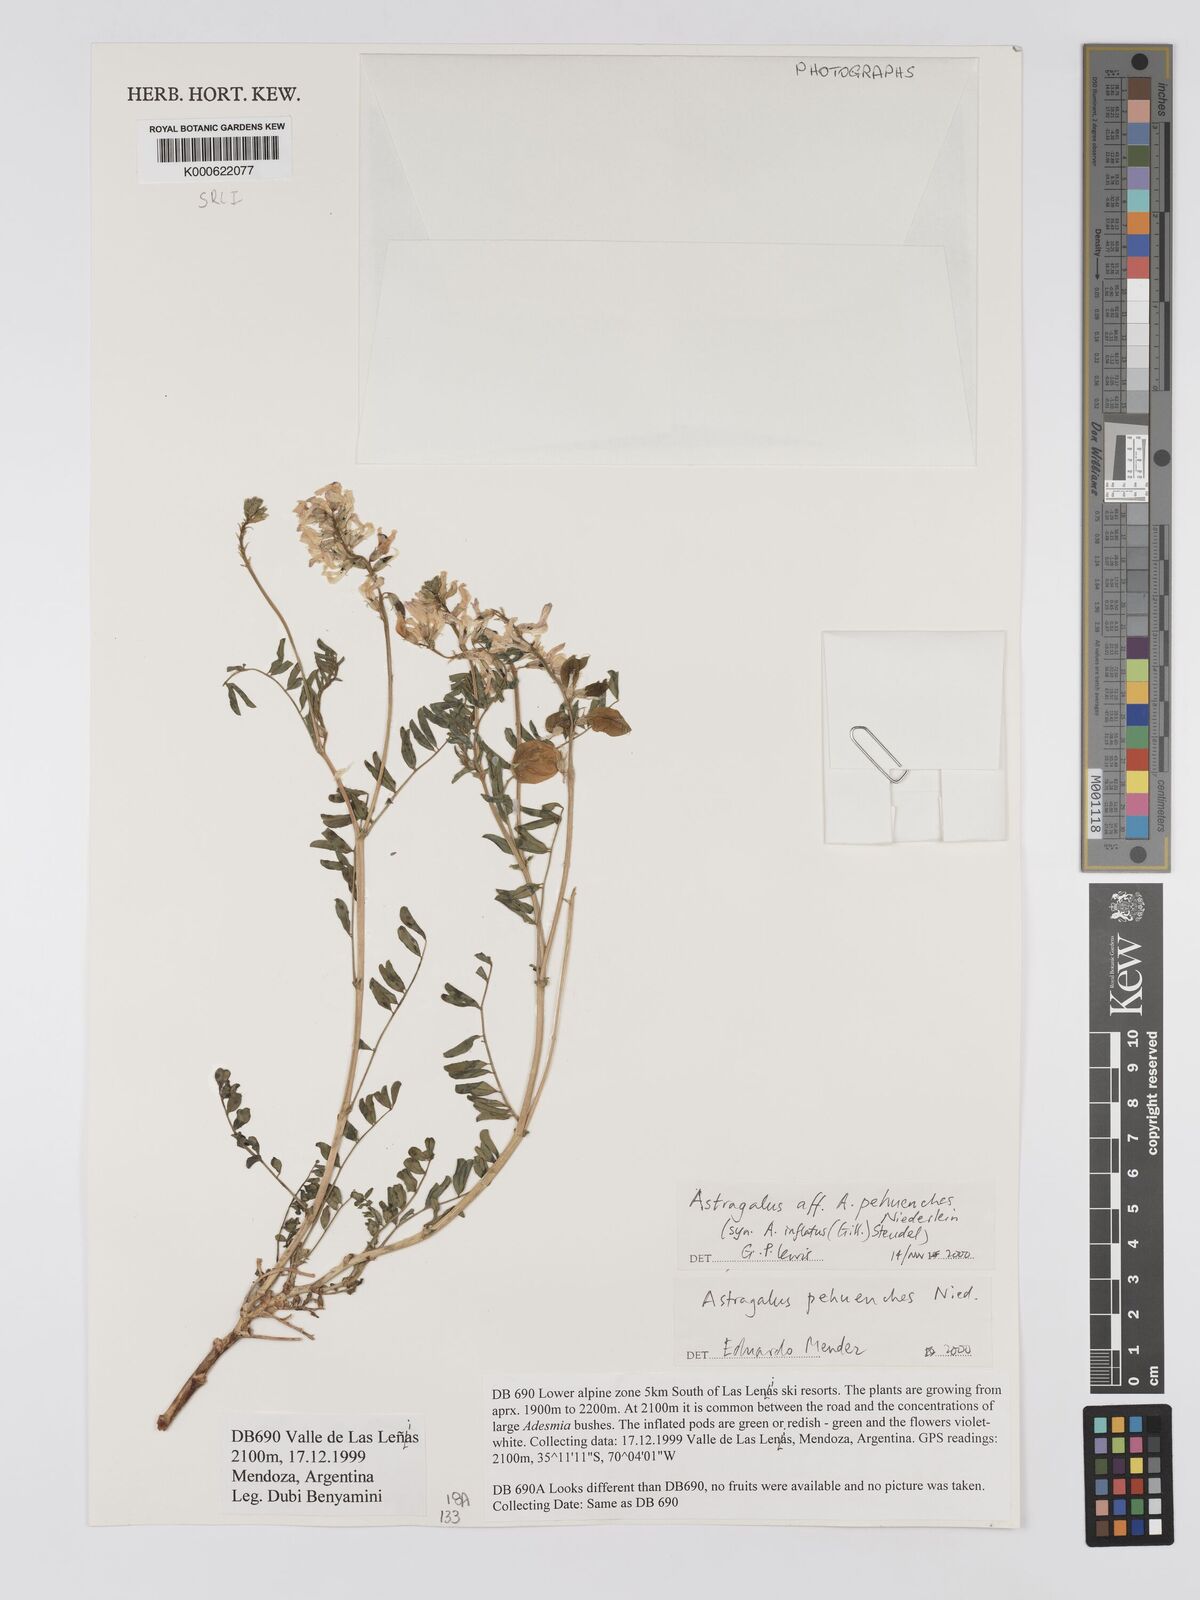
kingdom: Plantae
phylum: Tracheophyta
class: Magnoliopsida
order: Fabales
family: Fabaceae
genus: Astragalus
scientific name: Astragalus pehuenches
